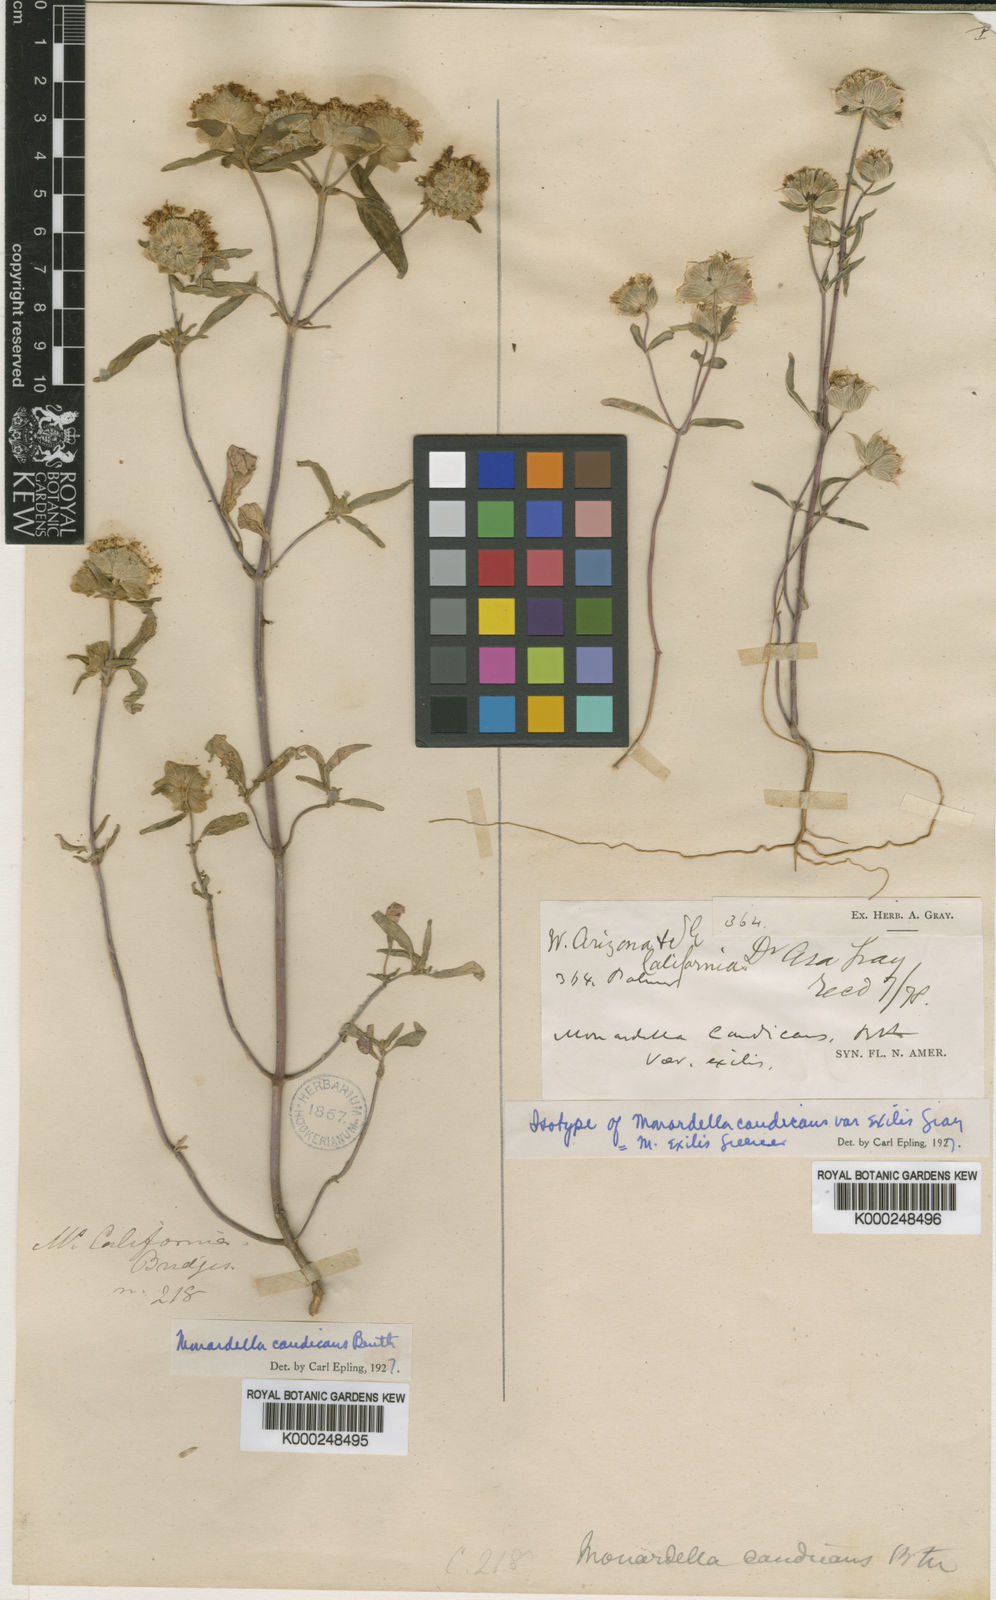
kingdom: Plantae
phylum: Tracheophyta
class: Magnoliopsida
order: Lamiales
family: Lamiaceae
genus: Monardella
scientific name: Monardella candicans
